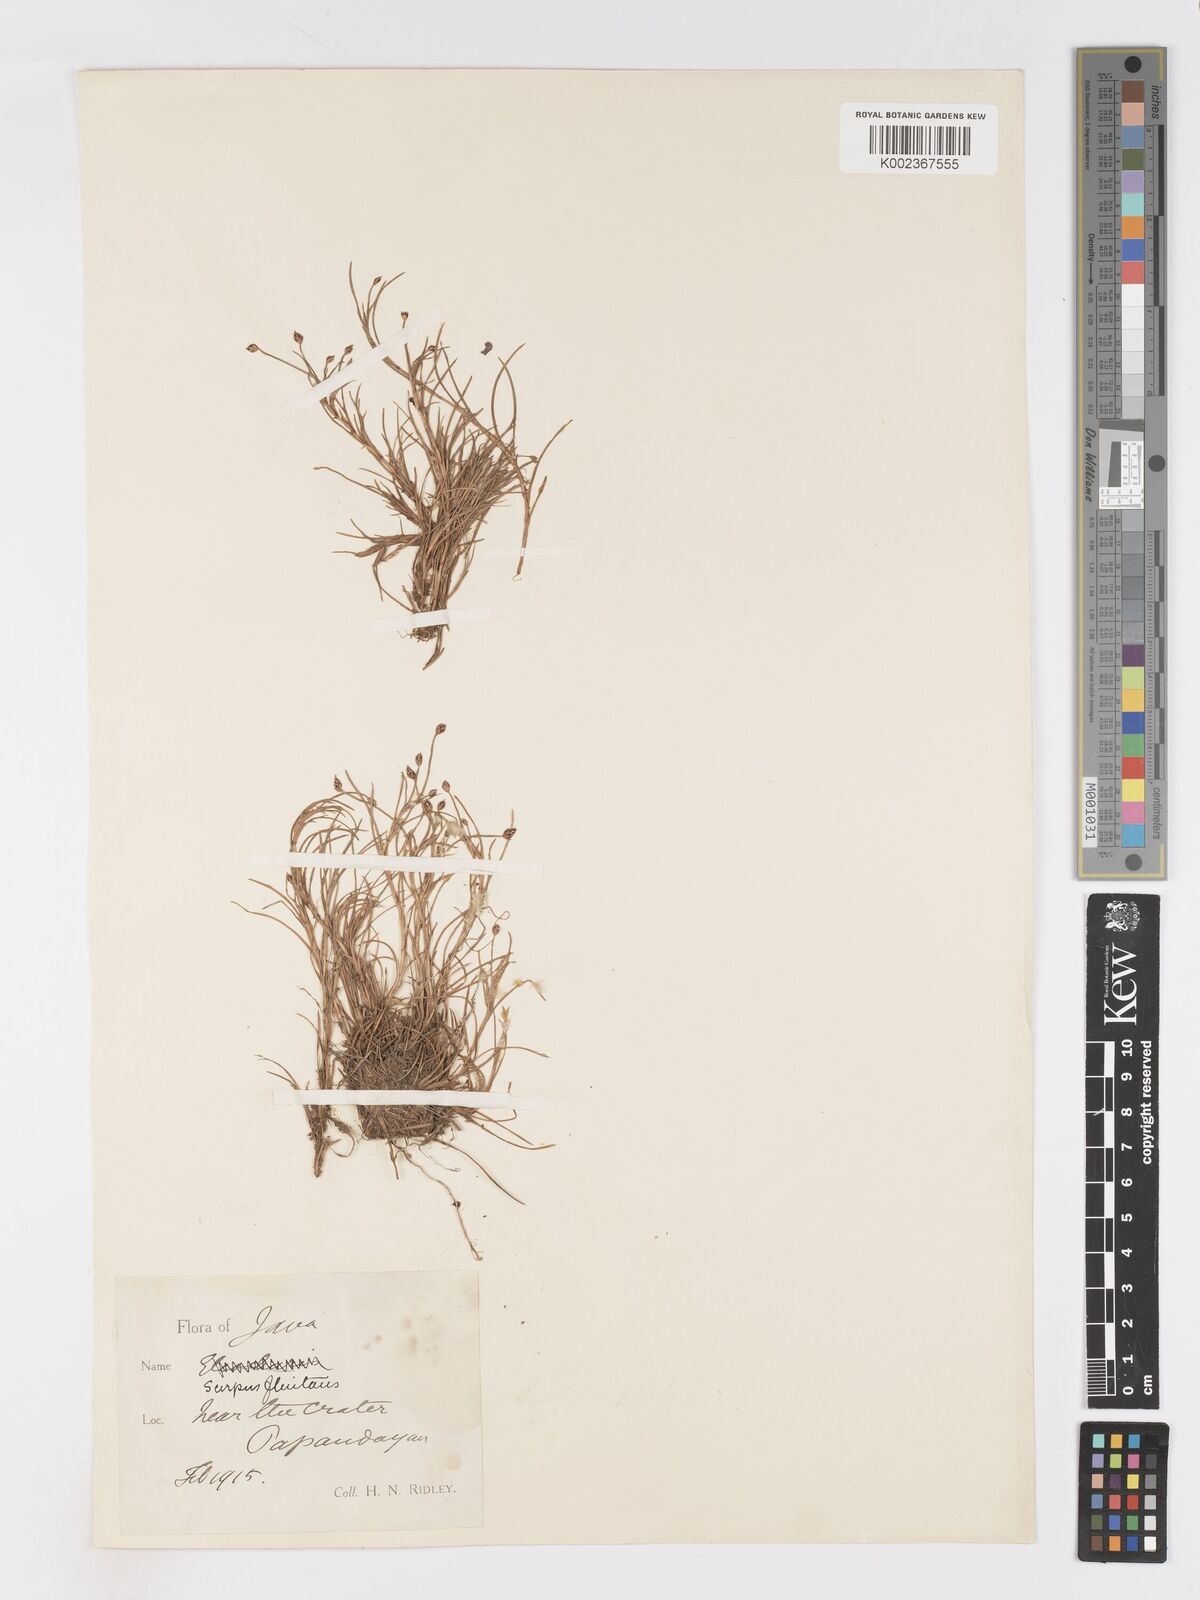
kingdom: Plantae
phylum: Tracheophyta
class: Liliopsida
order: Poales
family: Cyperaceae
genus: Isolepis
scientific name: Isolepis fluitans
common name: Floating club-rush
